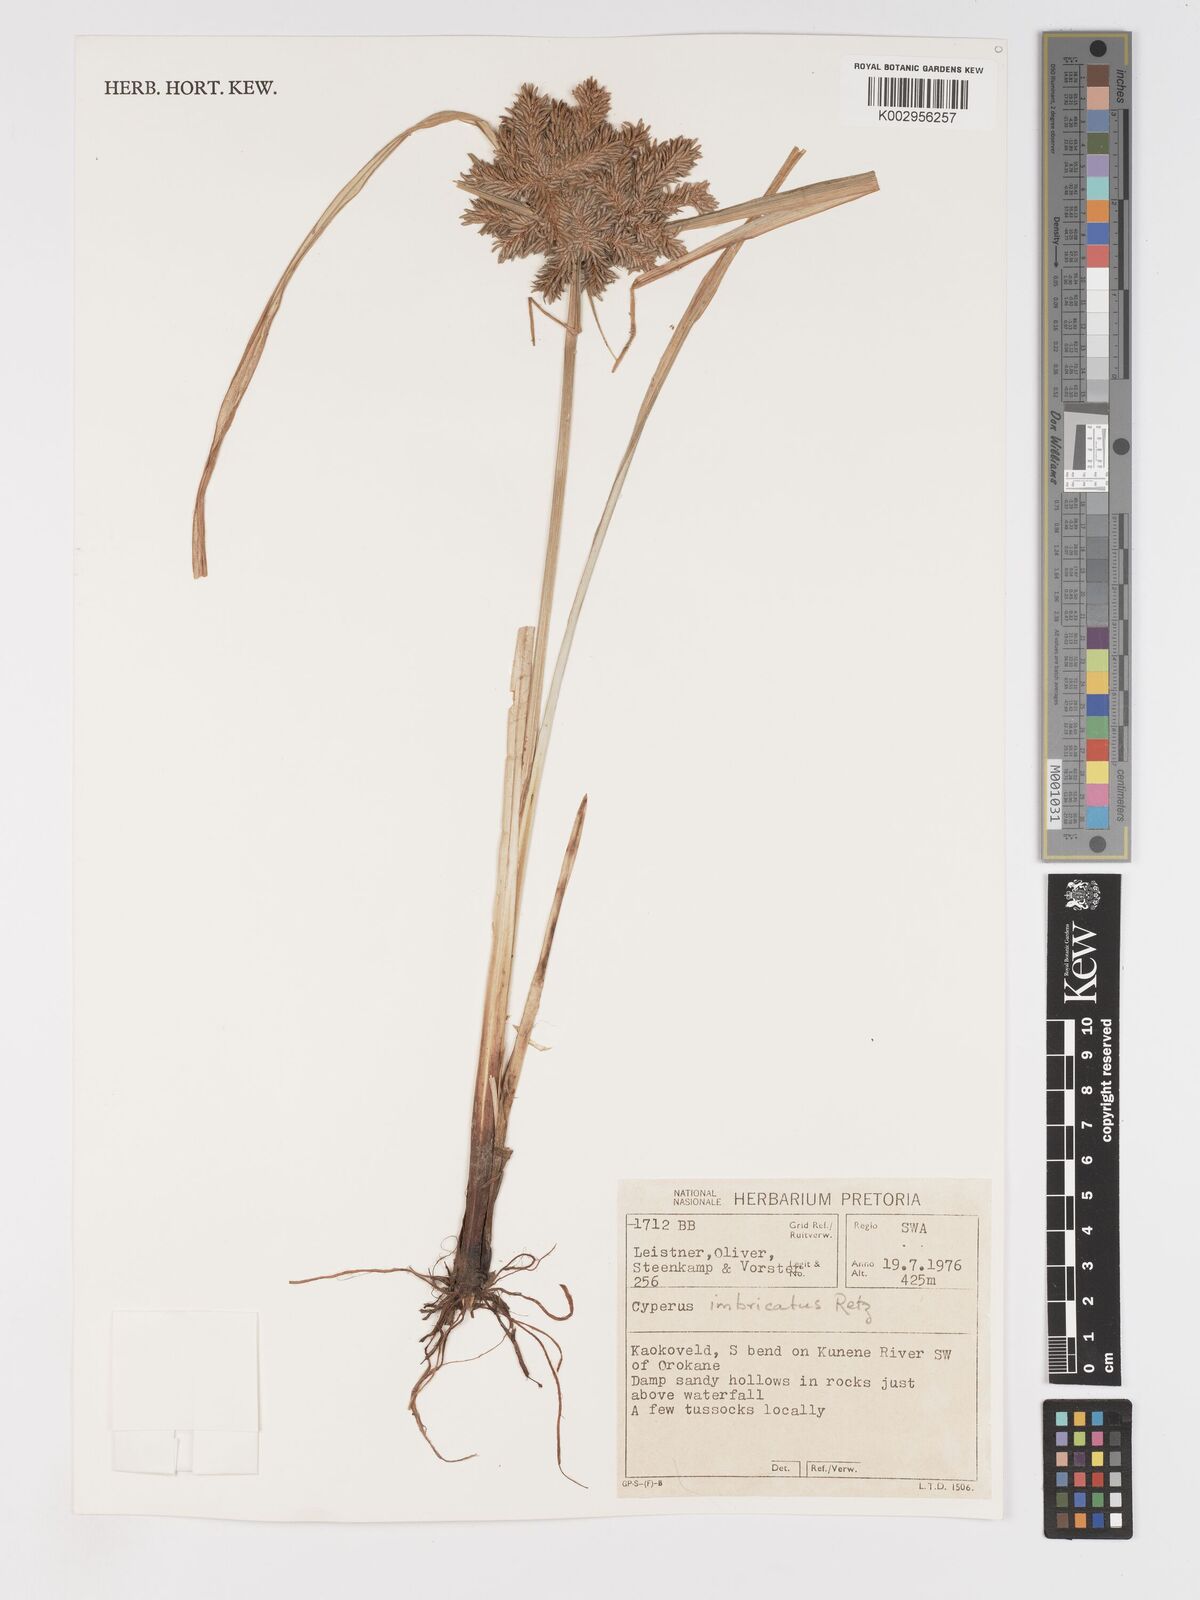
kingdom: Plantae
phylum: Tracheophyta
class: Liliopsida
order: Poales
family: Cyperaceae
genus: Cyperus
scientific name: Cyperus imbricatus
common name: Shingle flatsedge
